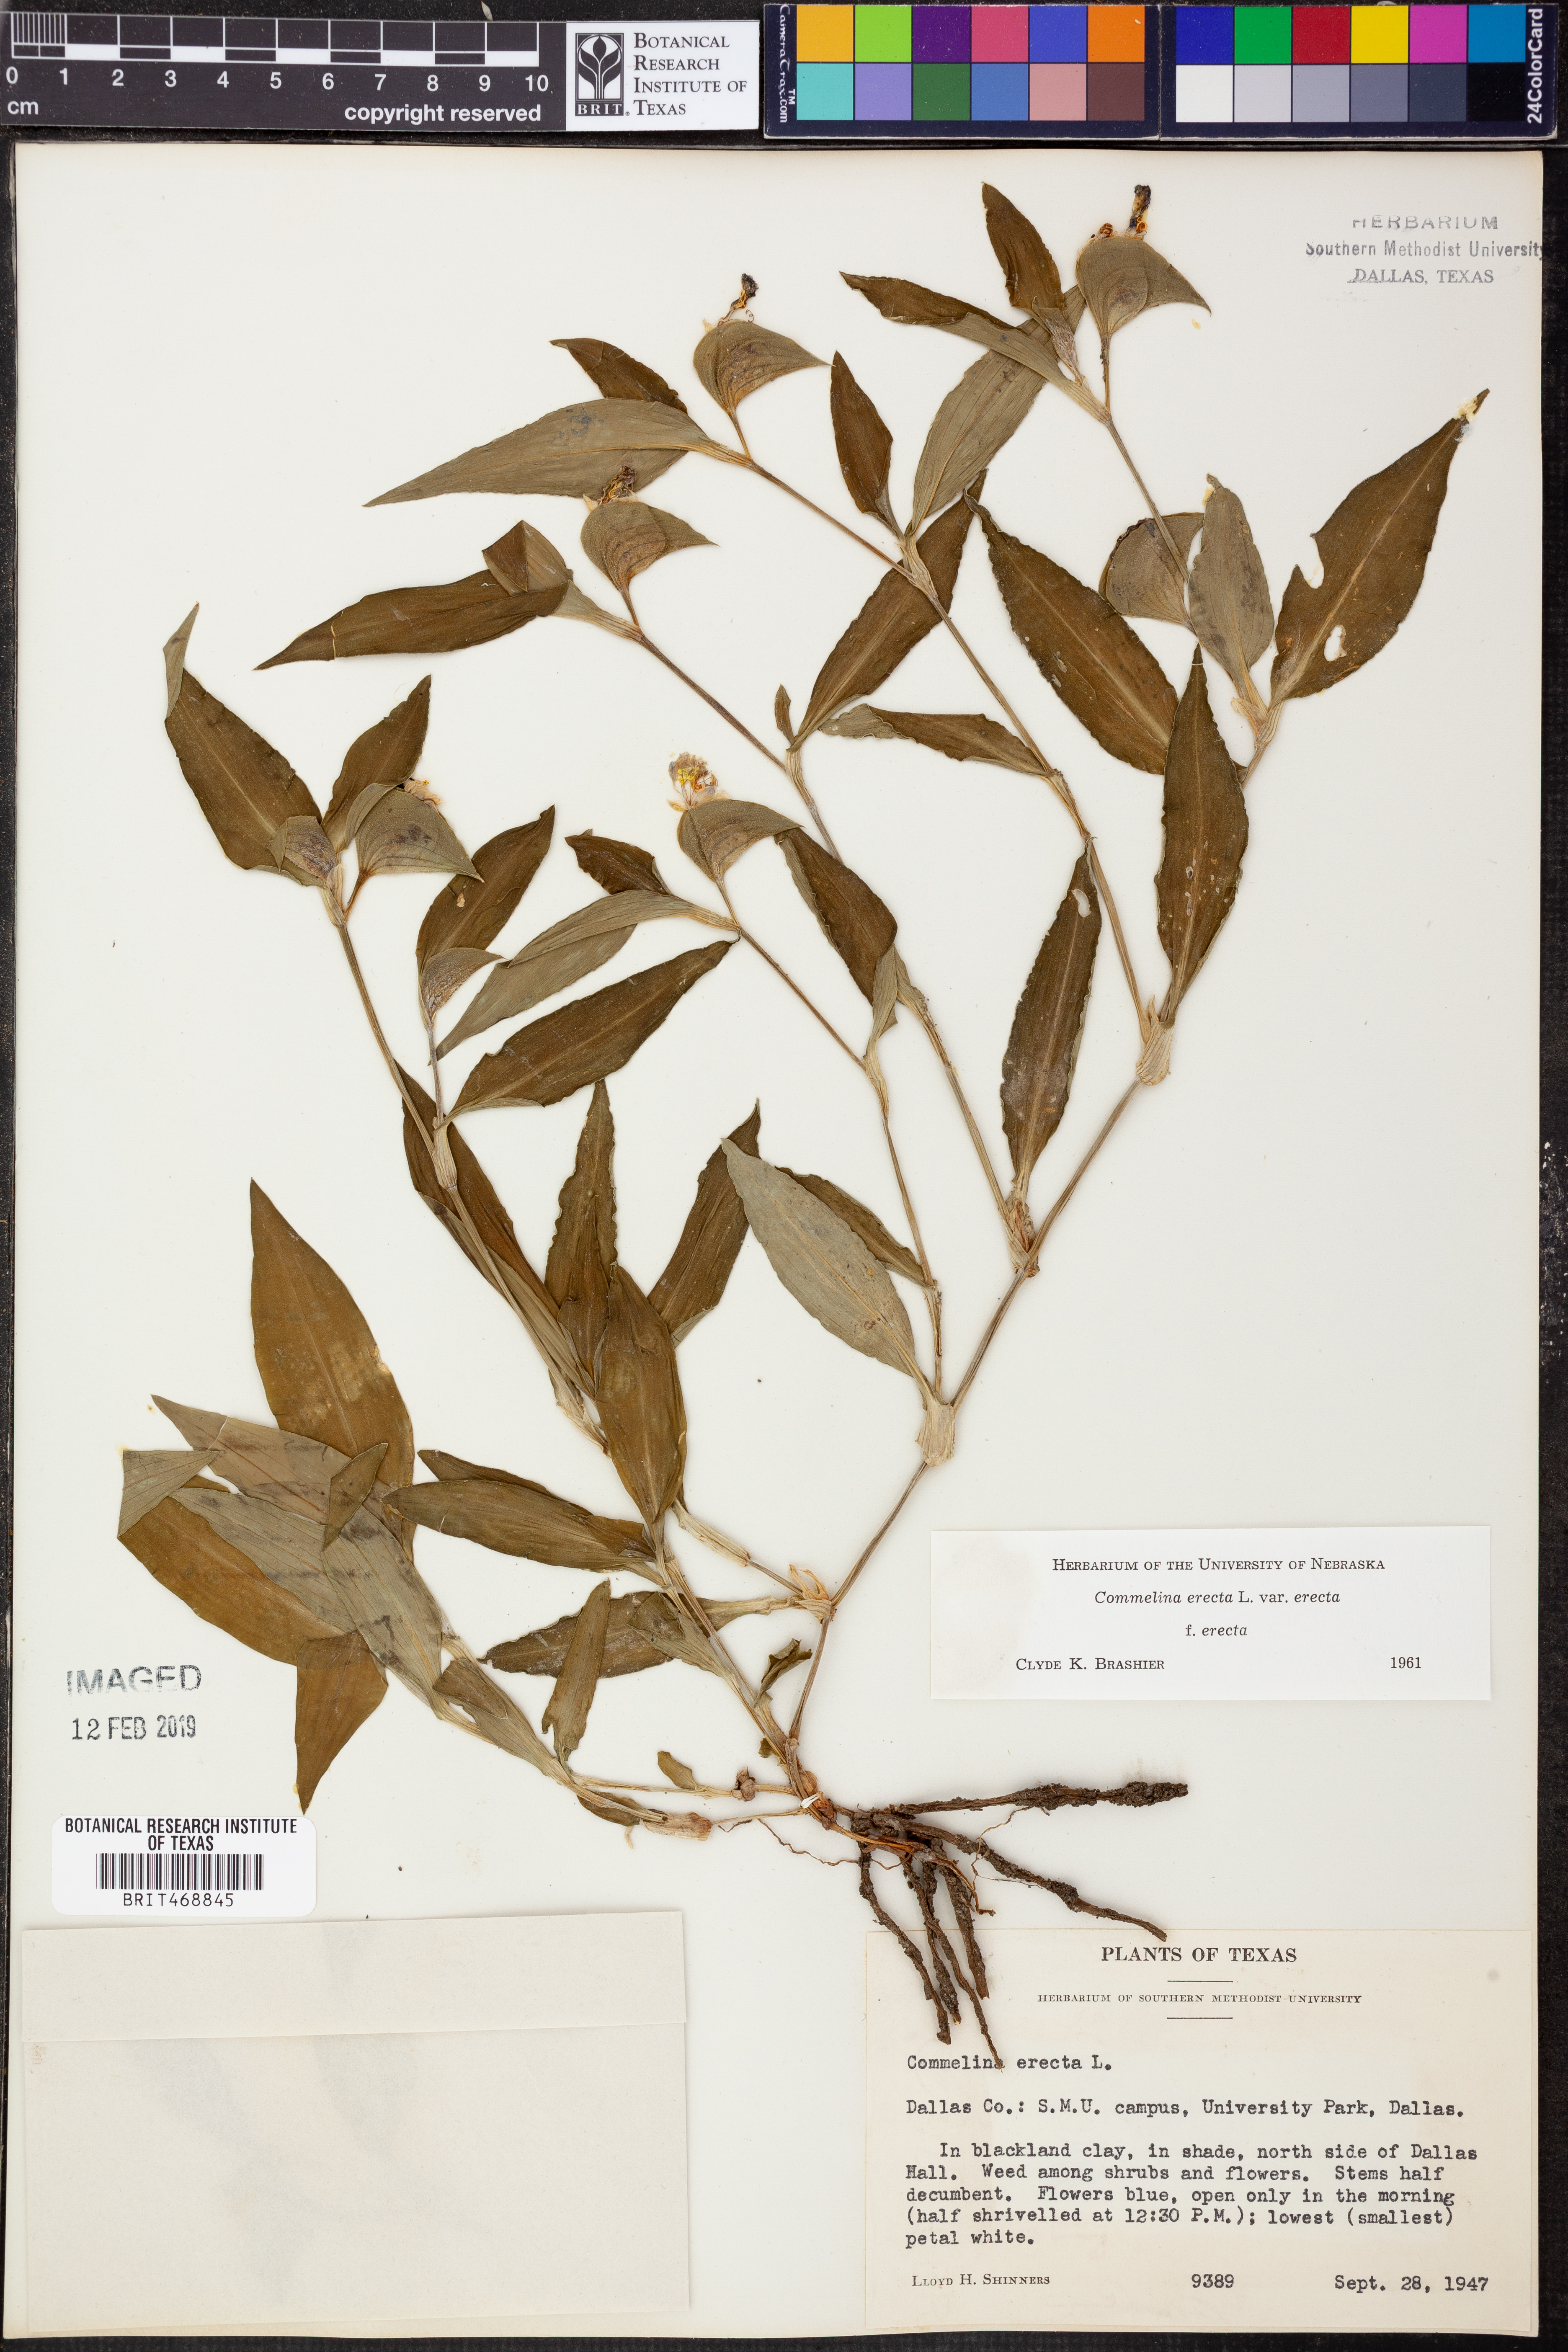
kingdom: Plantae
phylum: Tracheophyta
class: Liliopsida
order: Commelinales
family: Commelinaceae
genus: Commelina
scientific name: Commelina erecta
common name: Blousel blommetjie
